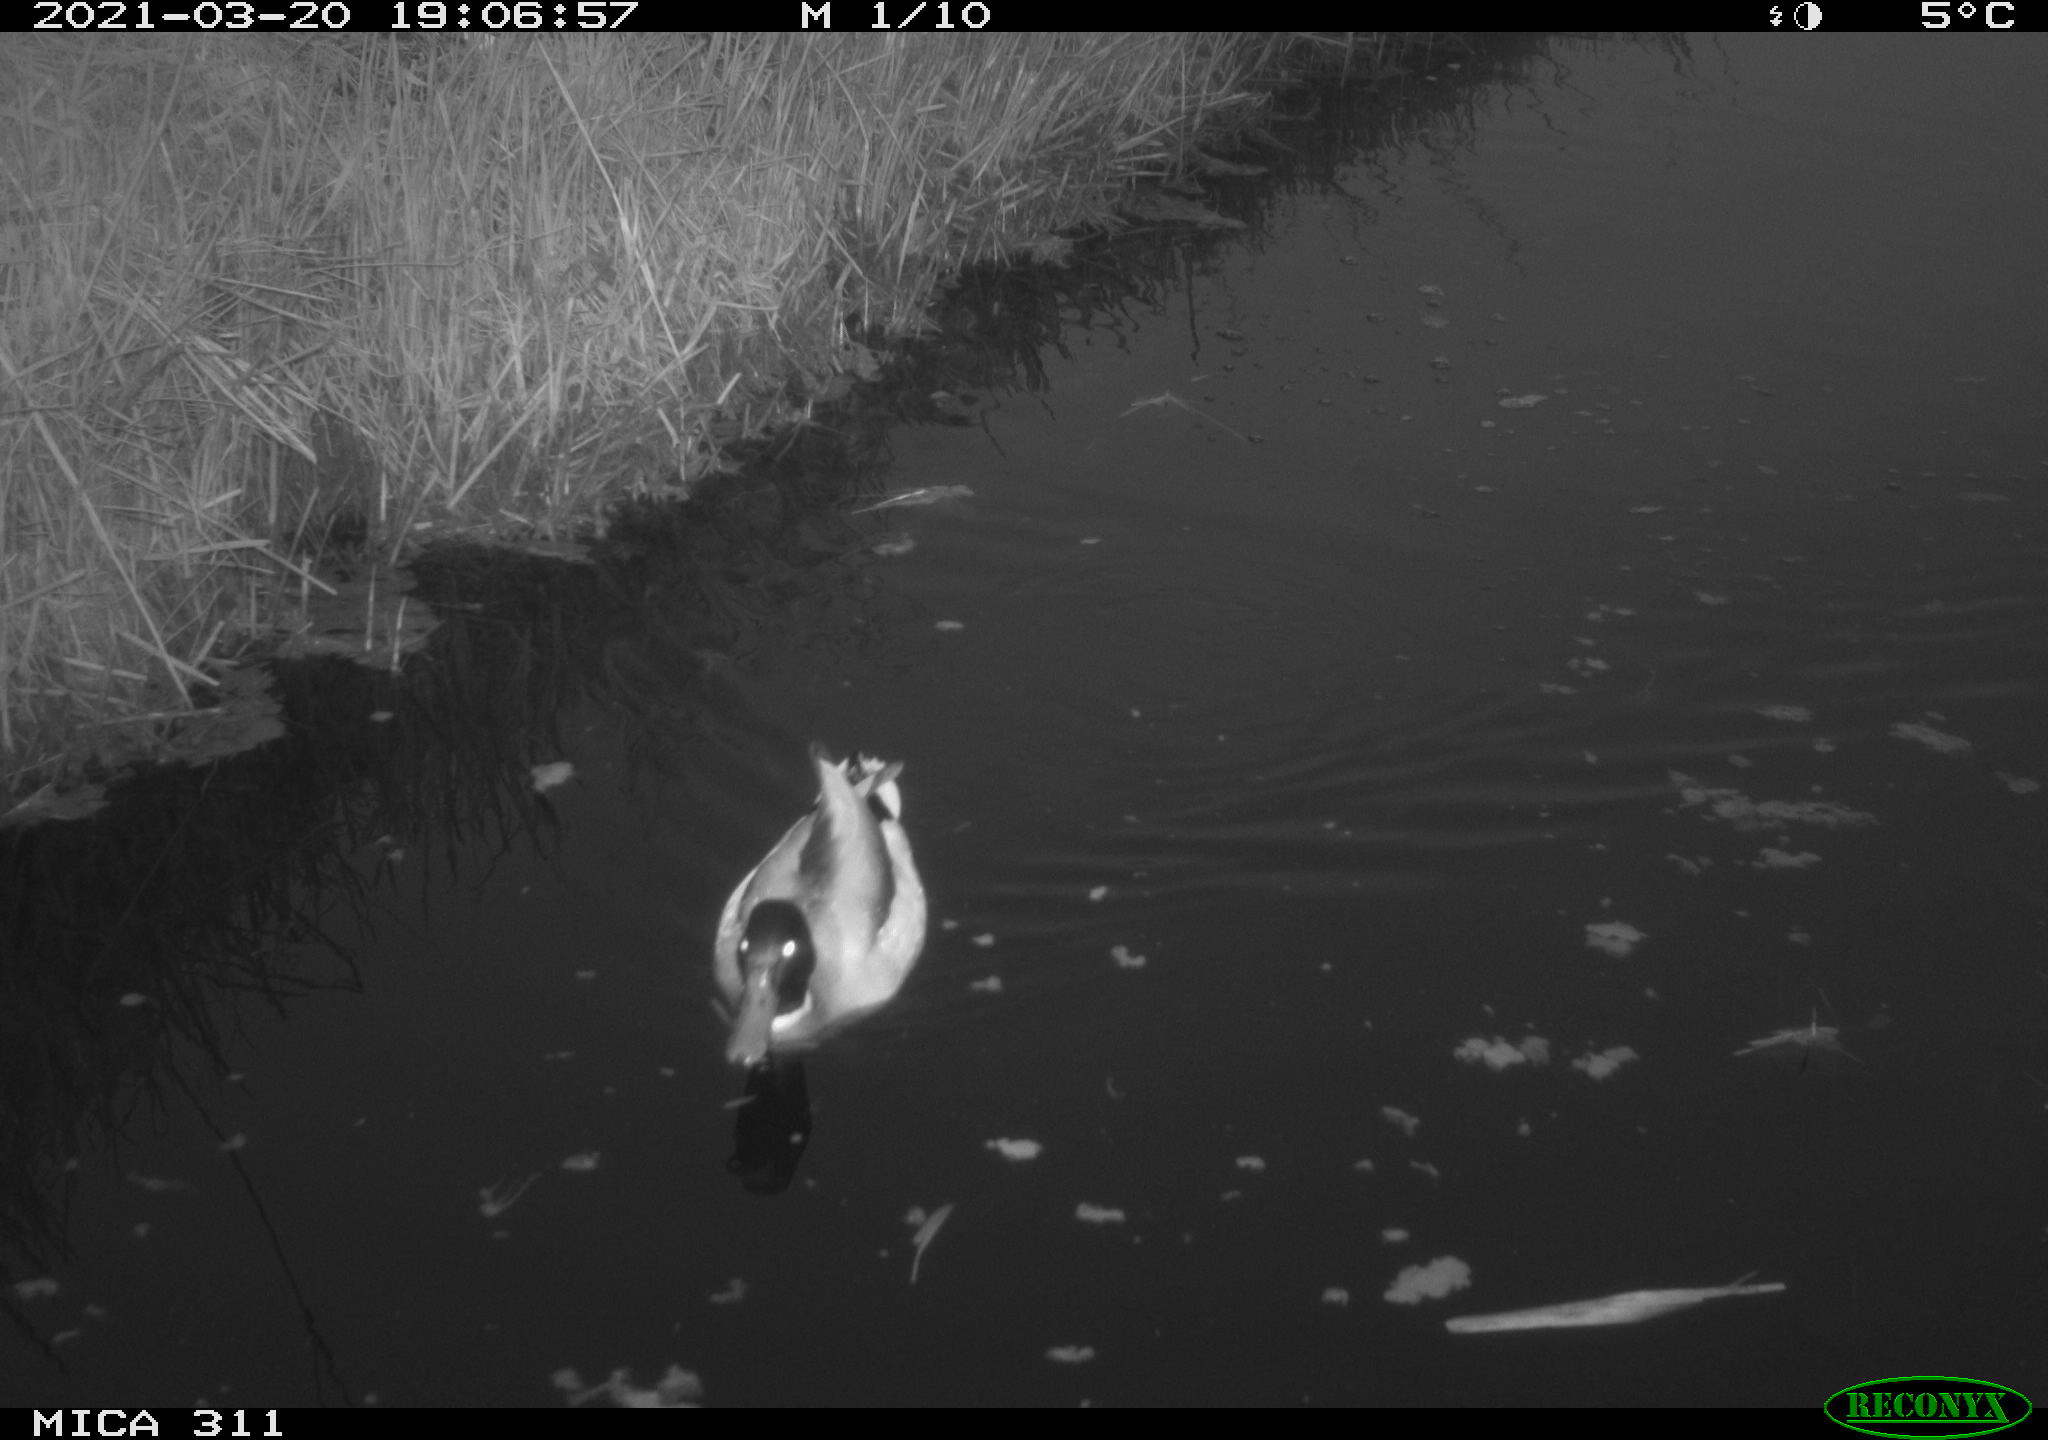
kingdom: Animalia
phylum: Chordata
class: Aves
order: Anseriformes
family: Anatidae
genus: Anas
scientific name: Anas platyrhynchos
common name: Mallard
